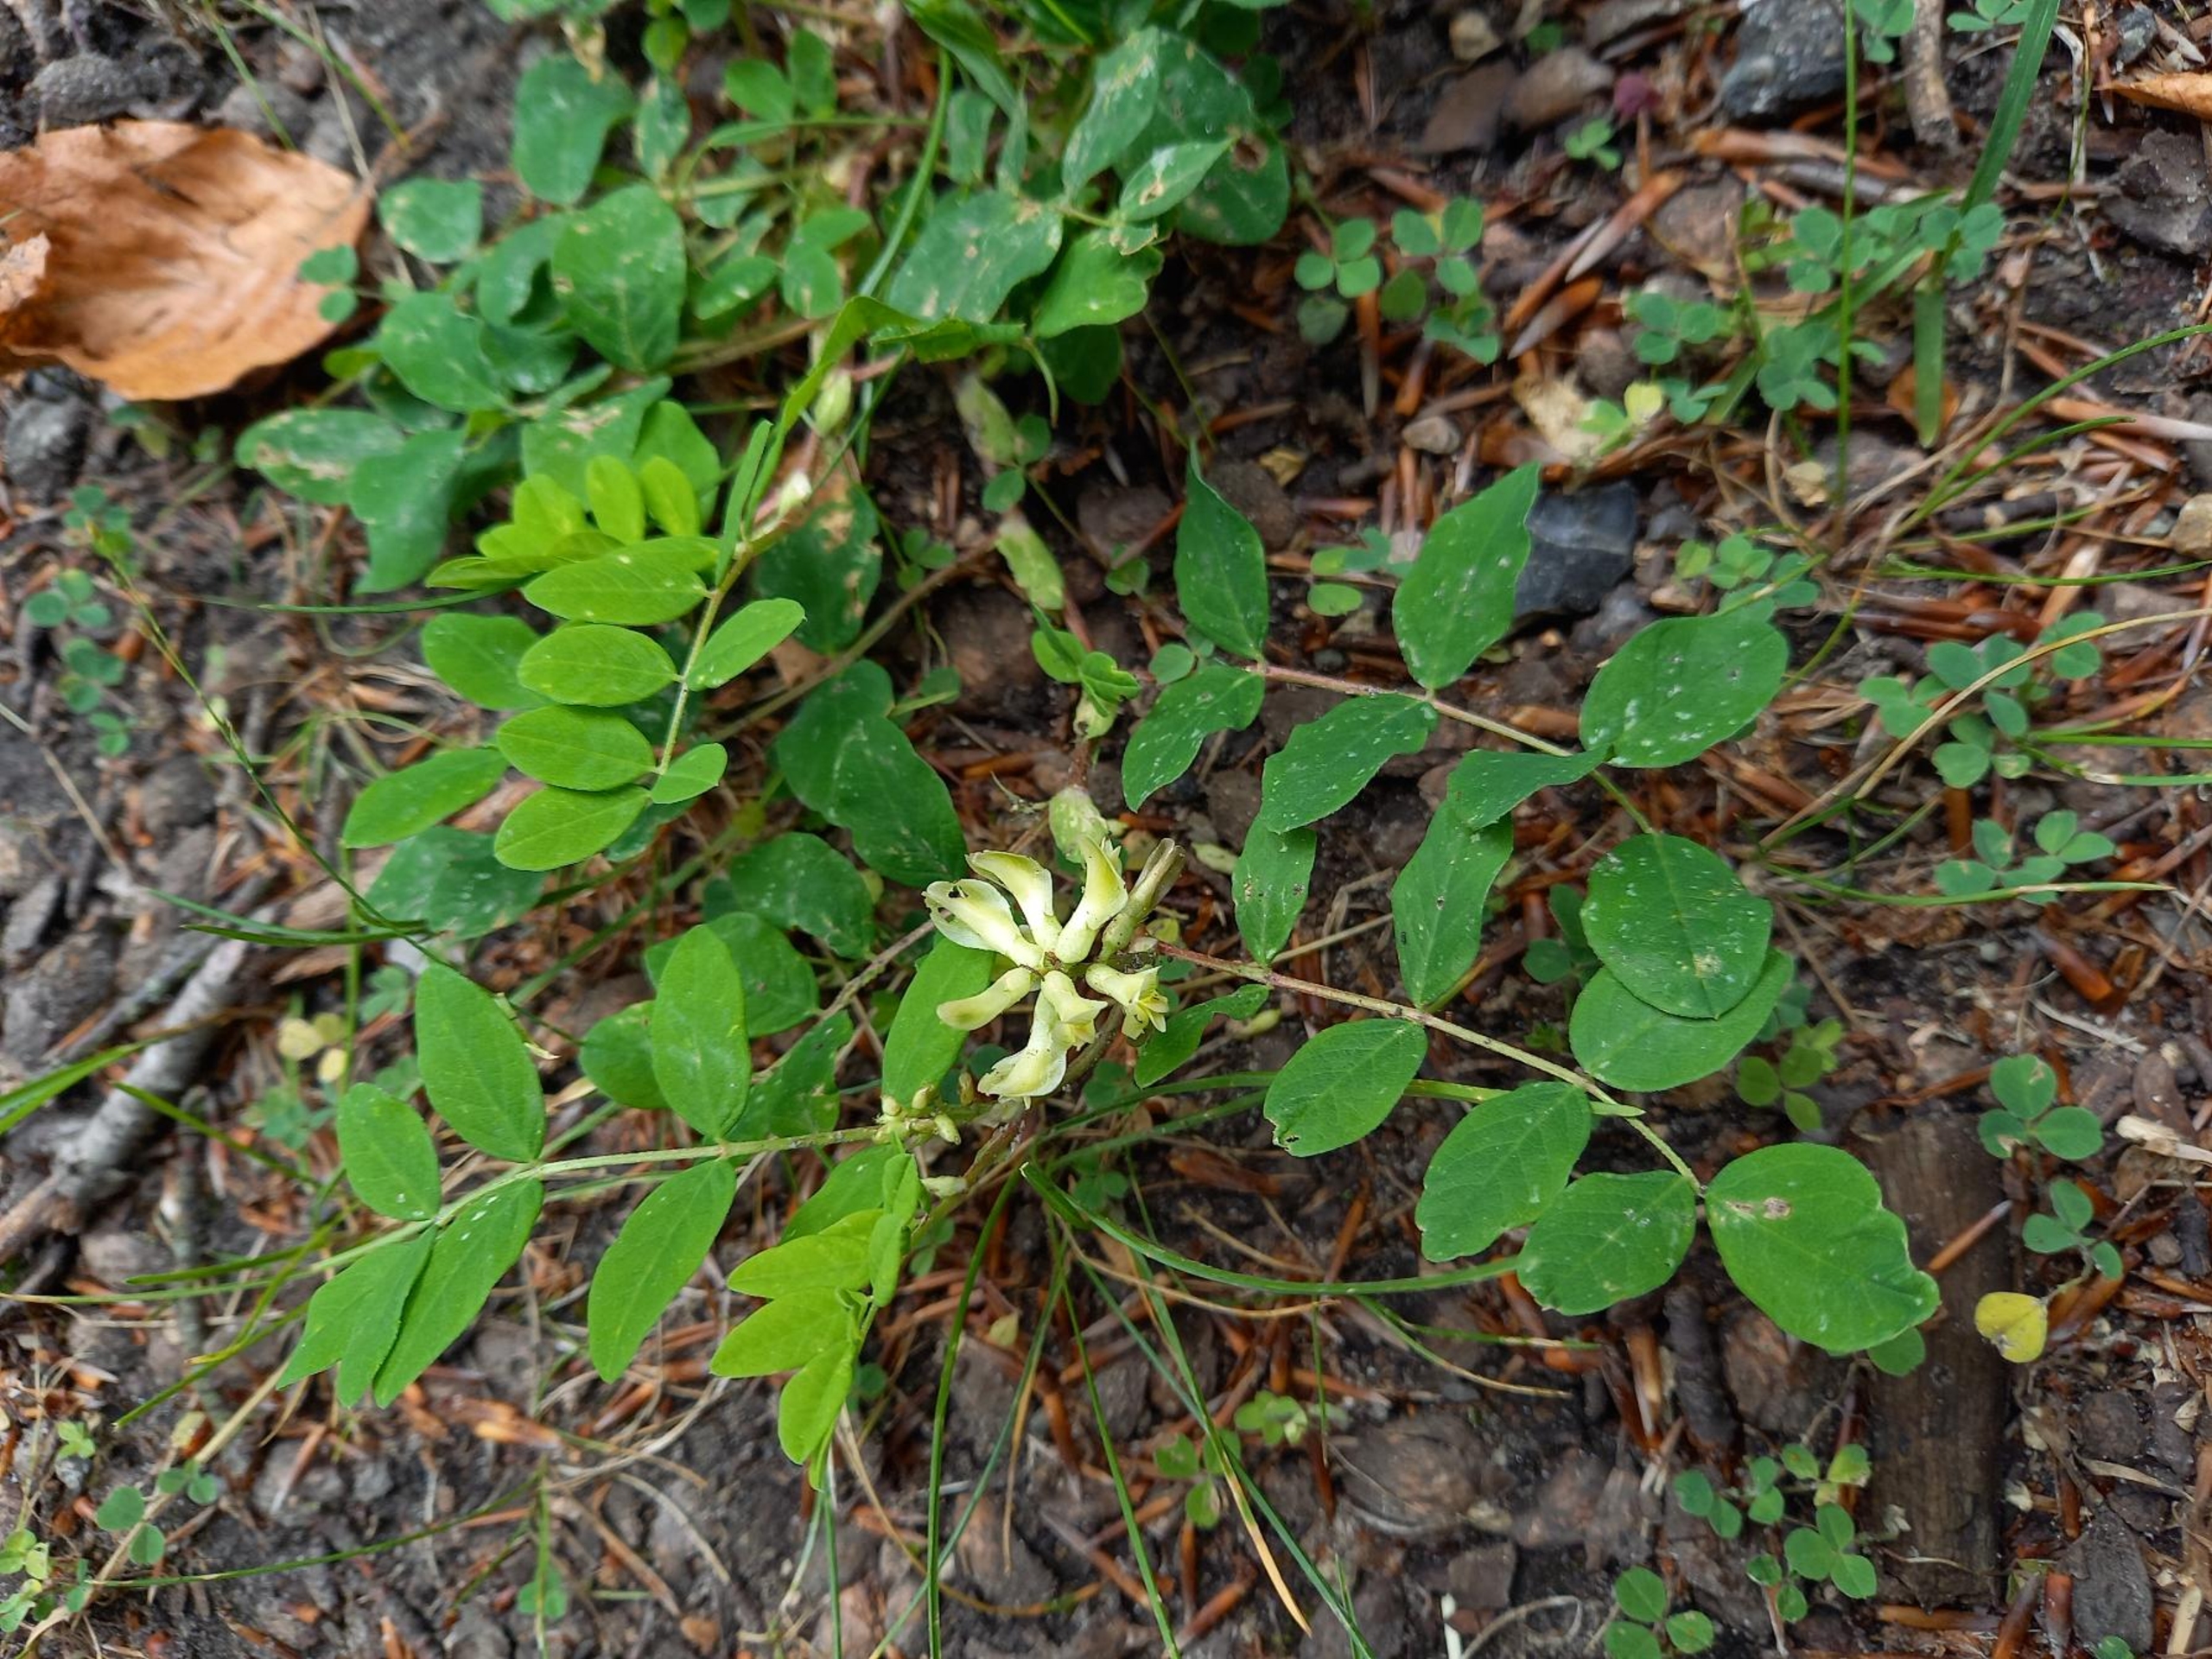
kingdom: Plantae
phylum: Tracheophyta
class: Magnoliopsida
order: Fabales
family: Fabaceae
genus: Astragalus
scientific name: Astragalus glycyphyllos
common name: Sød astragel
